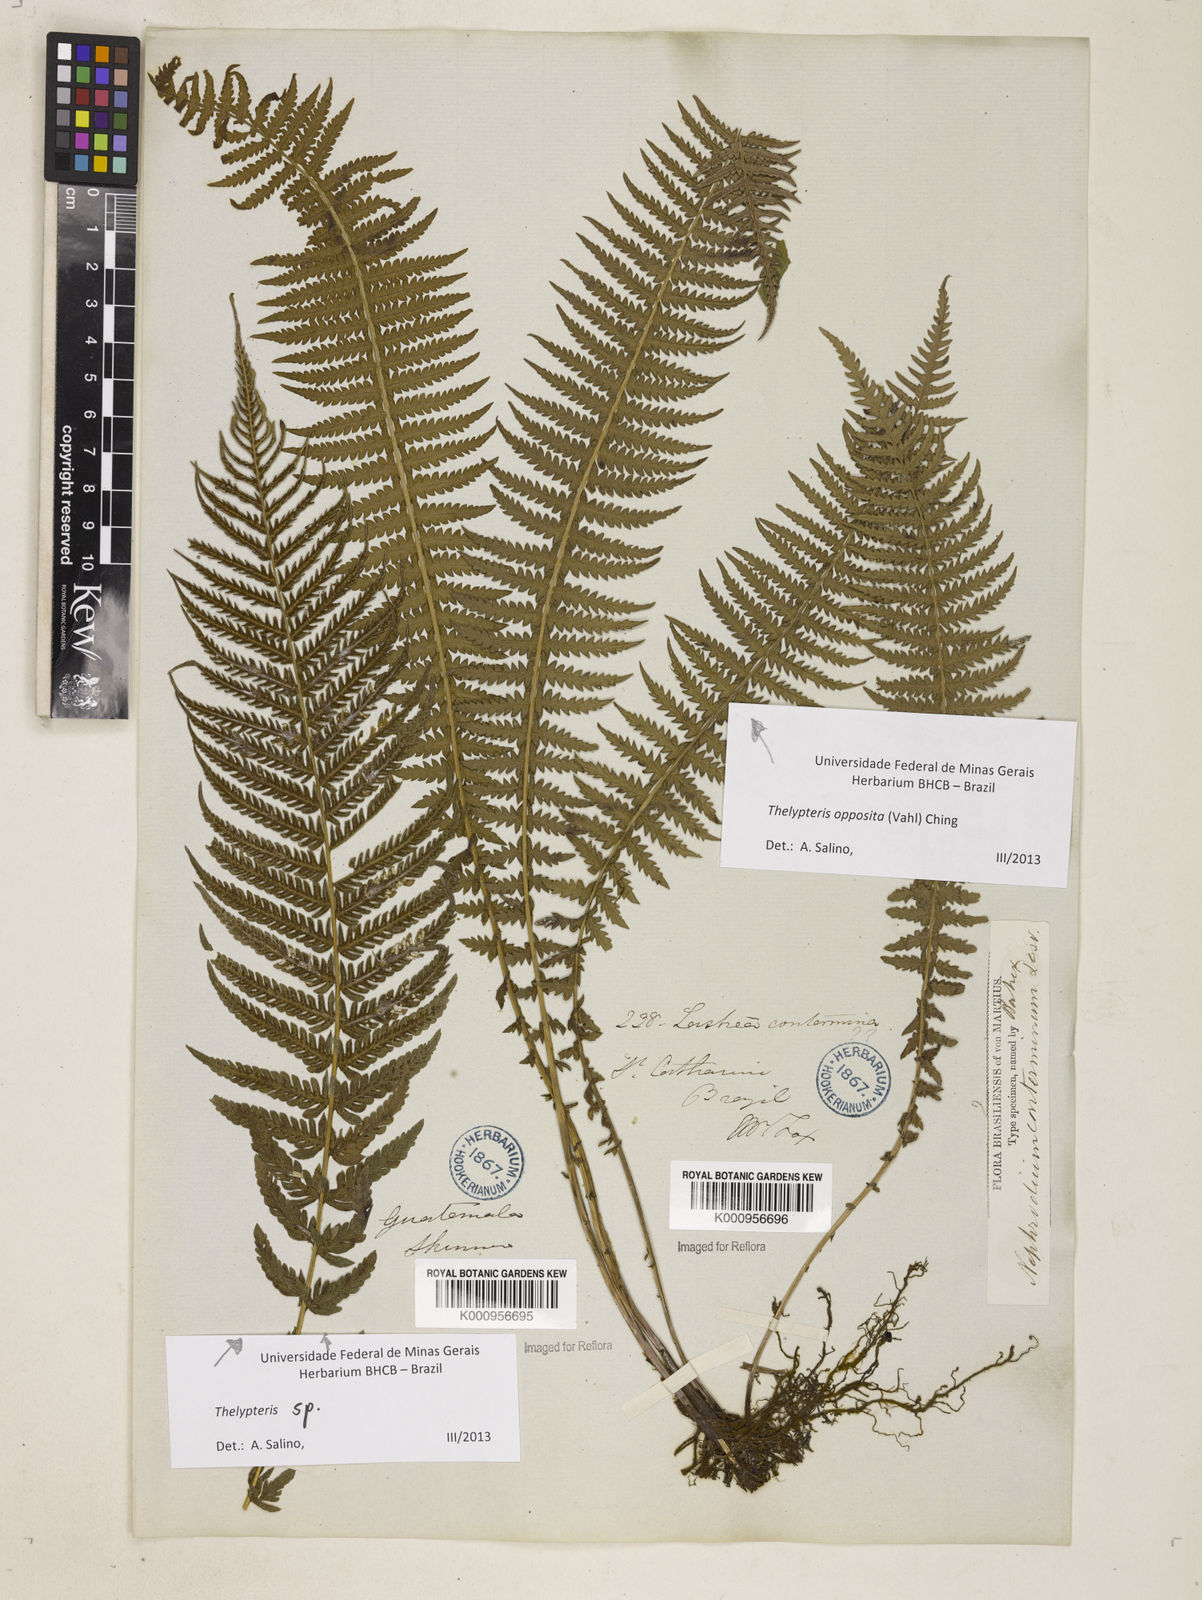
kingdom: Plantae
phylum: Tracheophyta
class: Polypodiopsida
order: Polypodiales
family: Thelypteridaceae
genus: Amauropelta
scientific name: Amauropelta opposita
